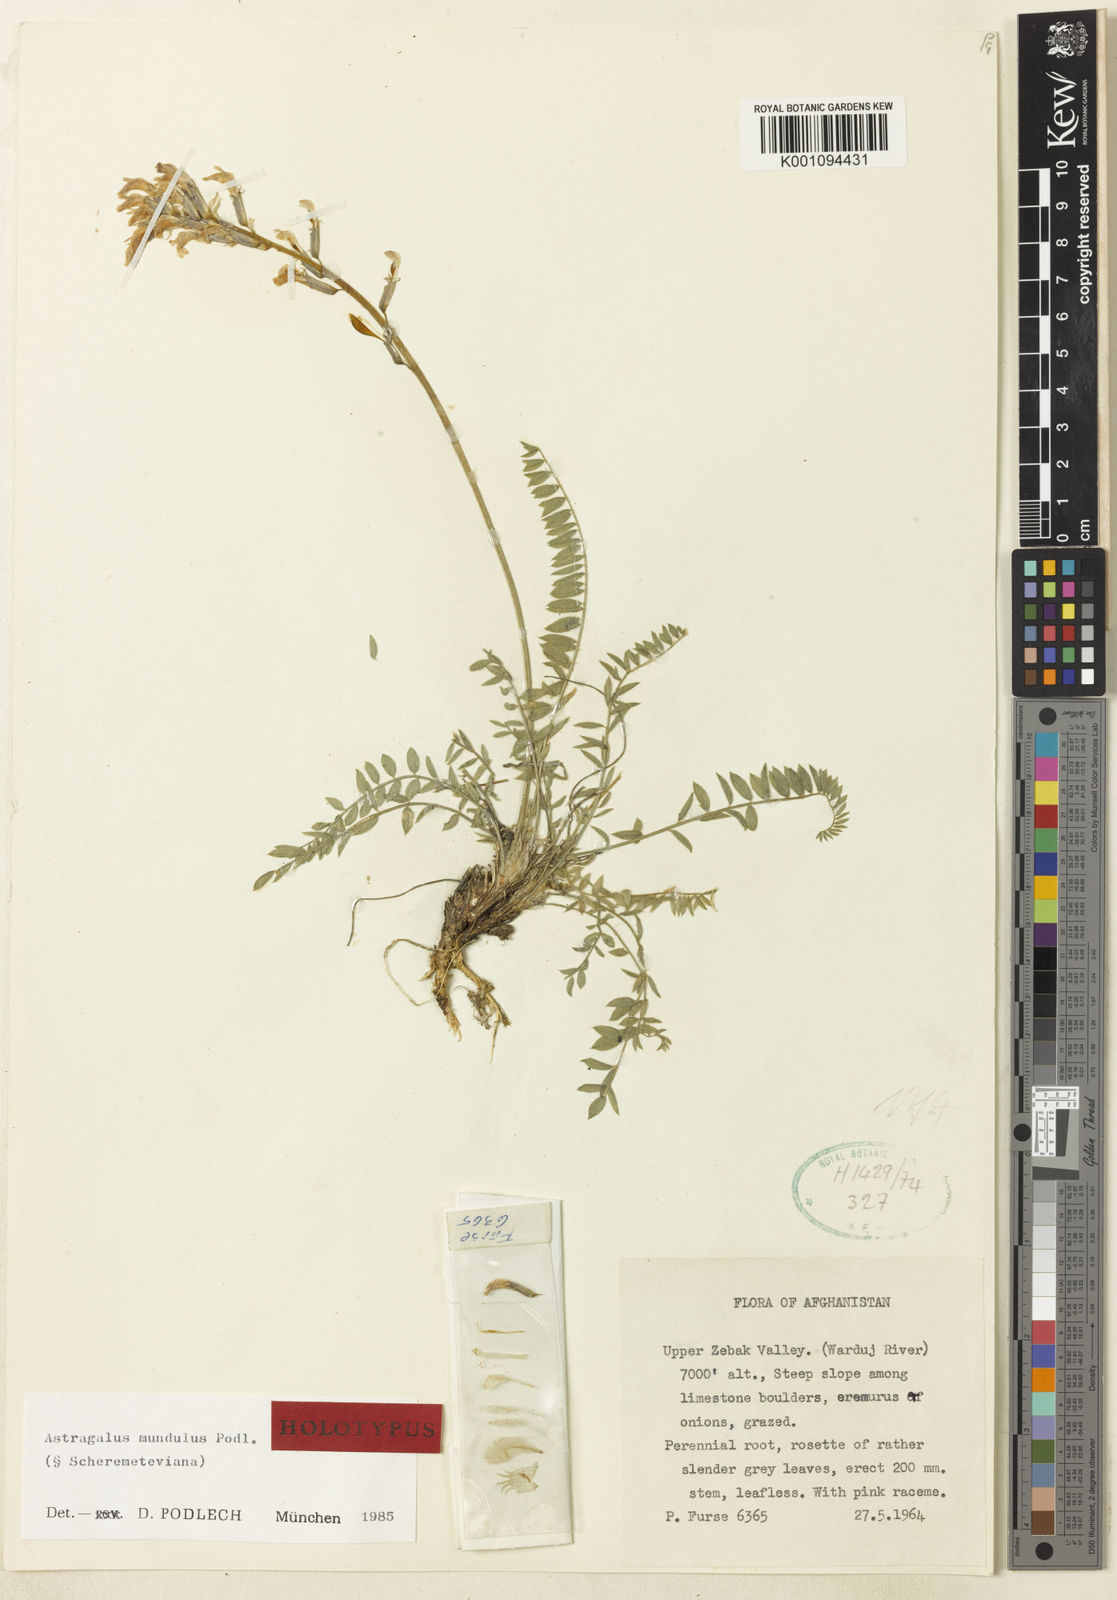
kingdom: Plantae
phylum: Tracheophyta
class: Magnoliopsida
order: Fabales
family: Fabaceae
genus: Astragalus
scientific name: Astragalus
